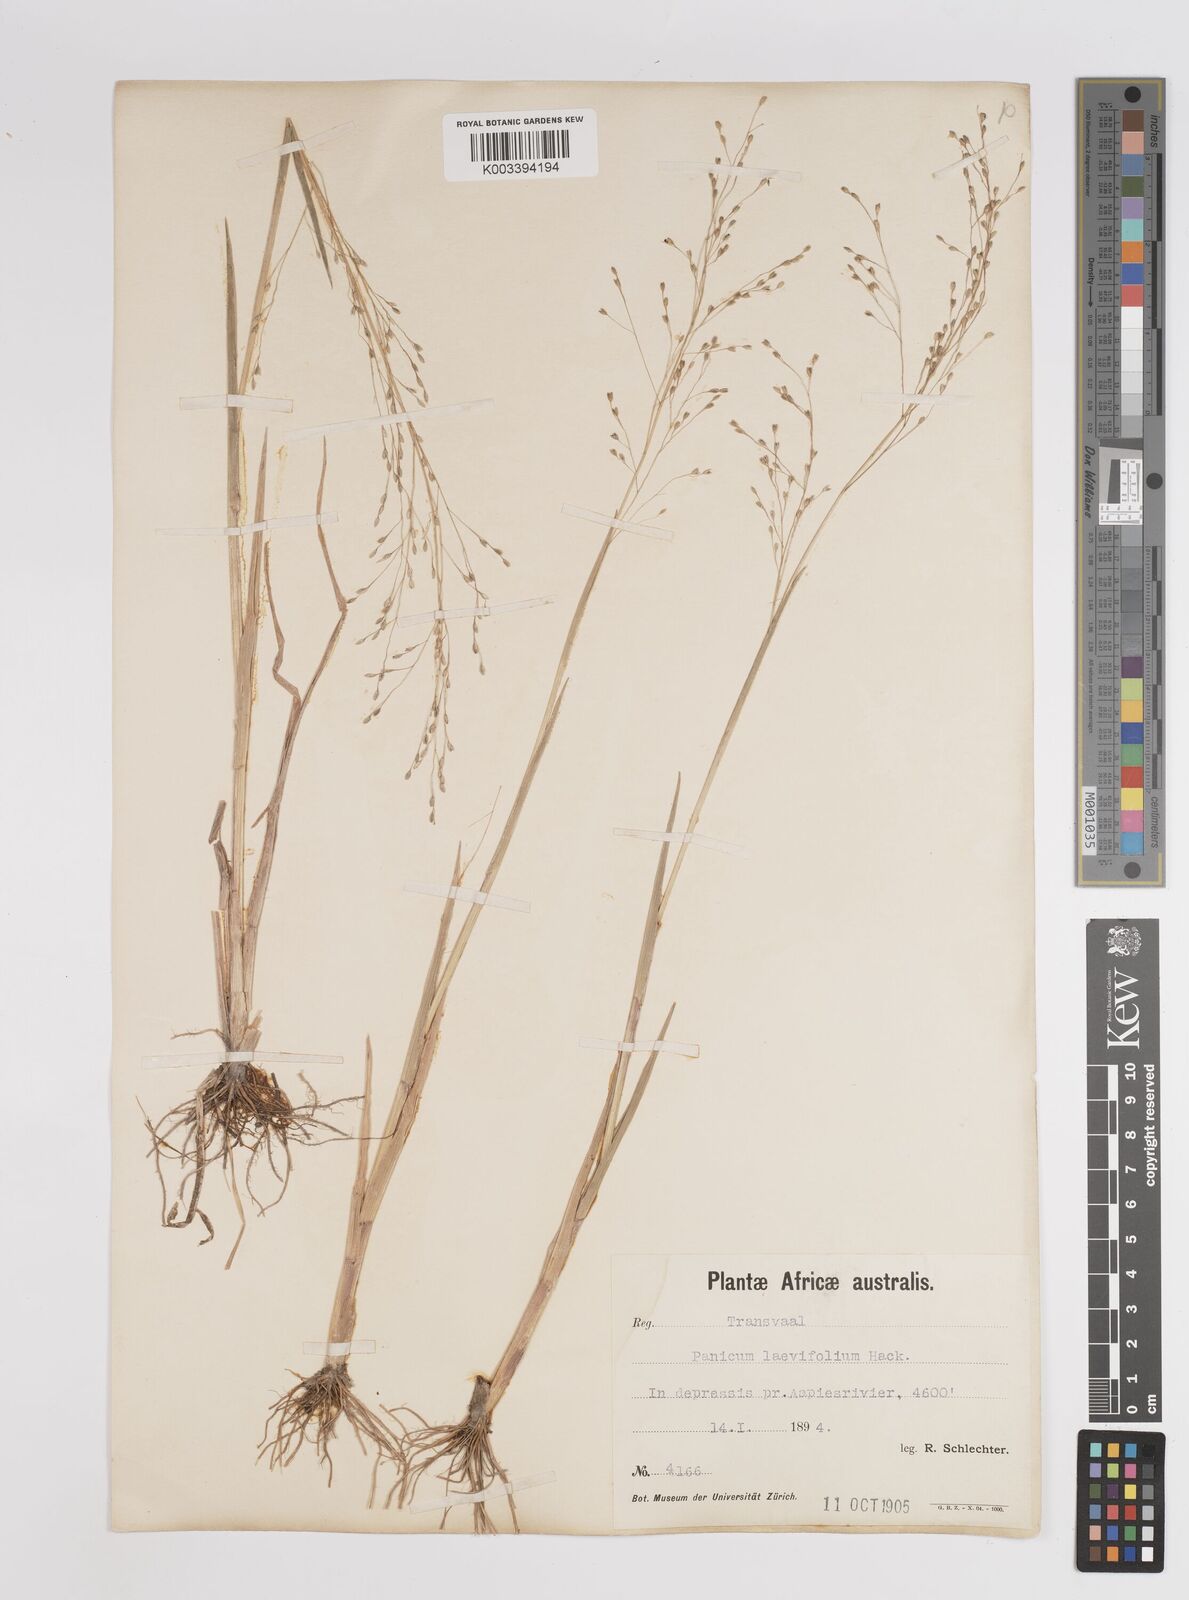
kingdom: Plantae
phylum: Tracheophyta
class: Liliopsida
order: Poales
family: Poaceae
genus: Panicum
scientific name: Panicum schinzii
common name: Sweet grass
